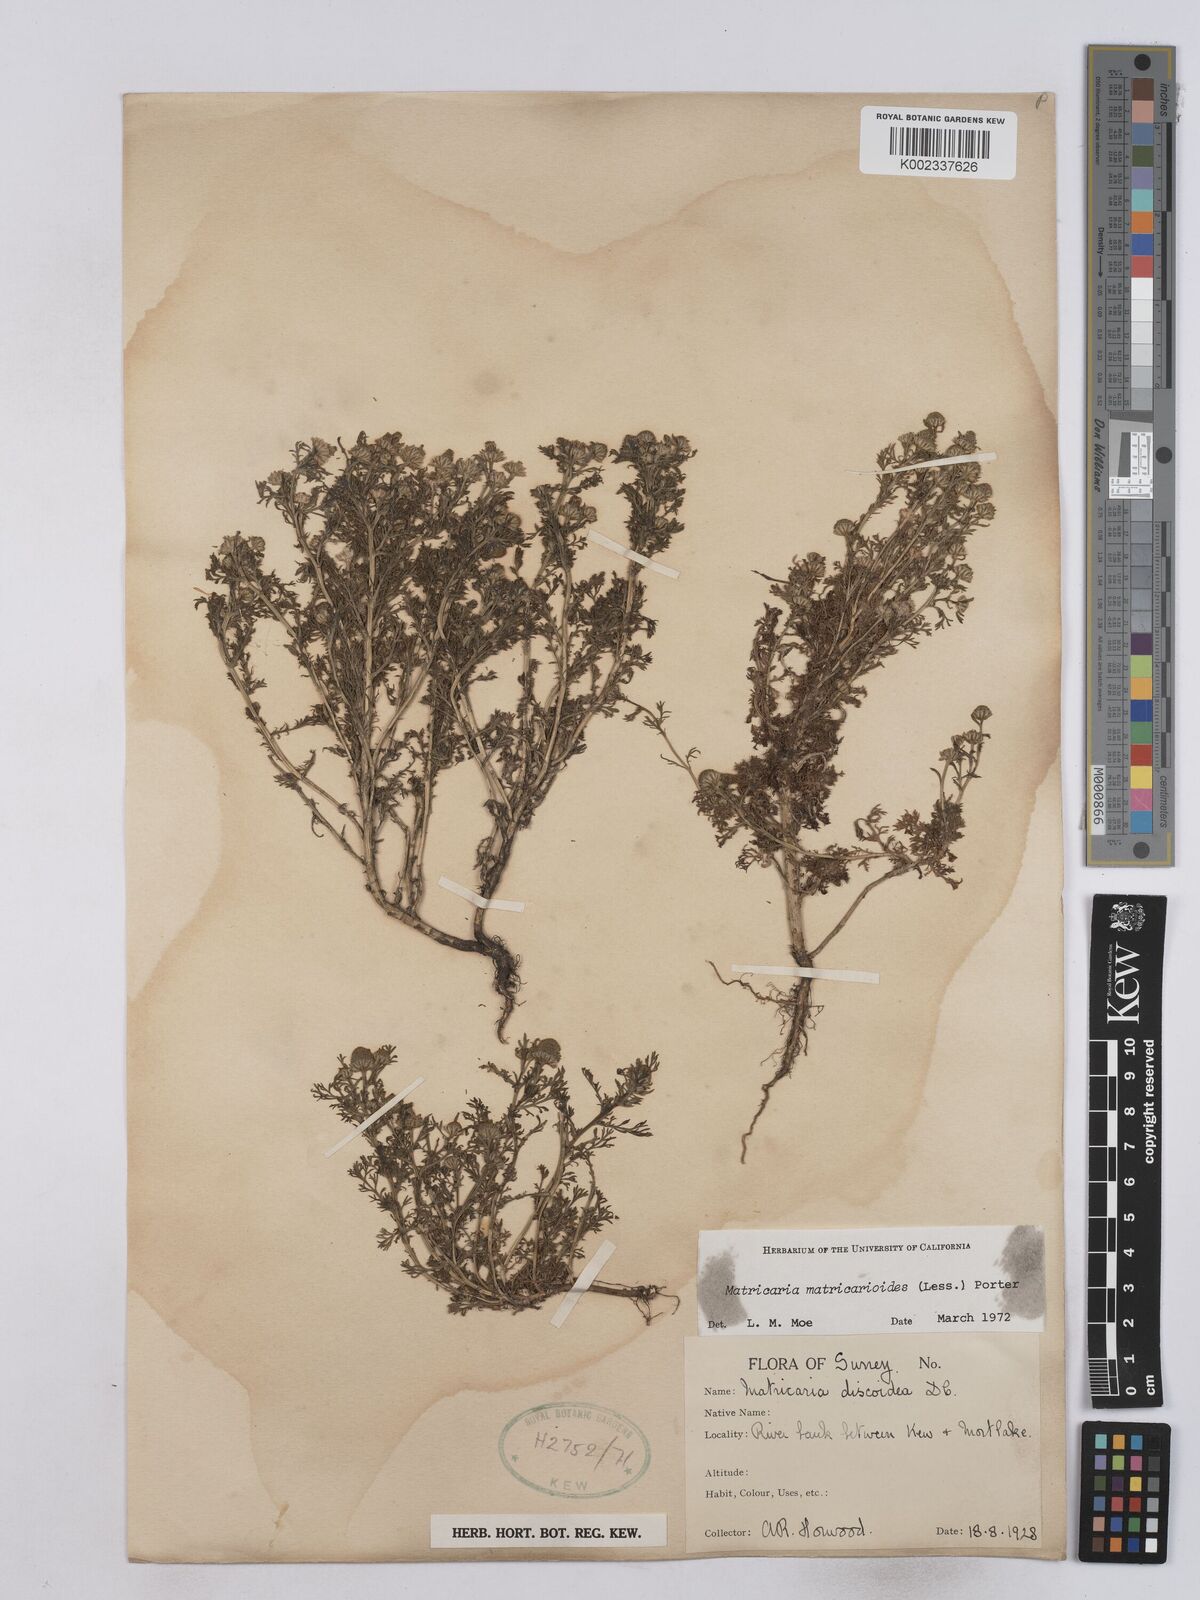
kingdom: Plantae
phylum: Tracheophyta
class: Magnoliopsida
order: Asterales
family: Asteraceae
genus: Matricaria
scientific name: Matricaria discoidea
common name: Disc mayweed
